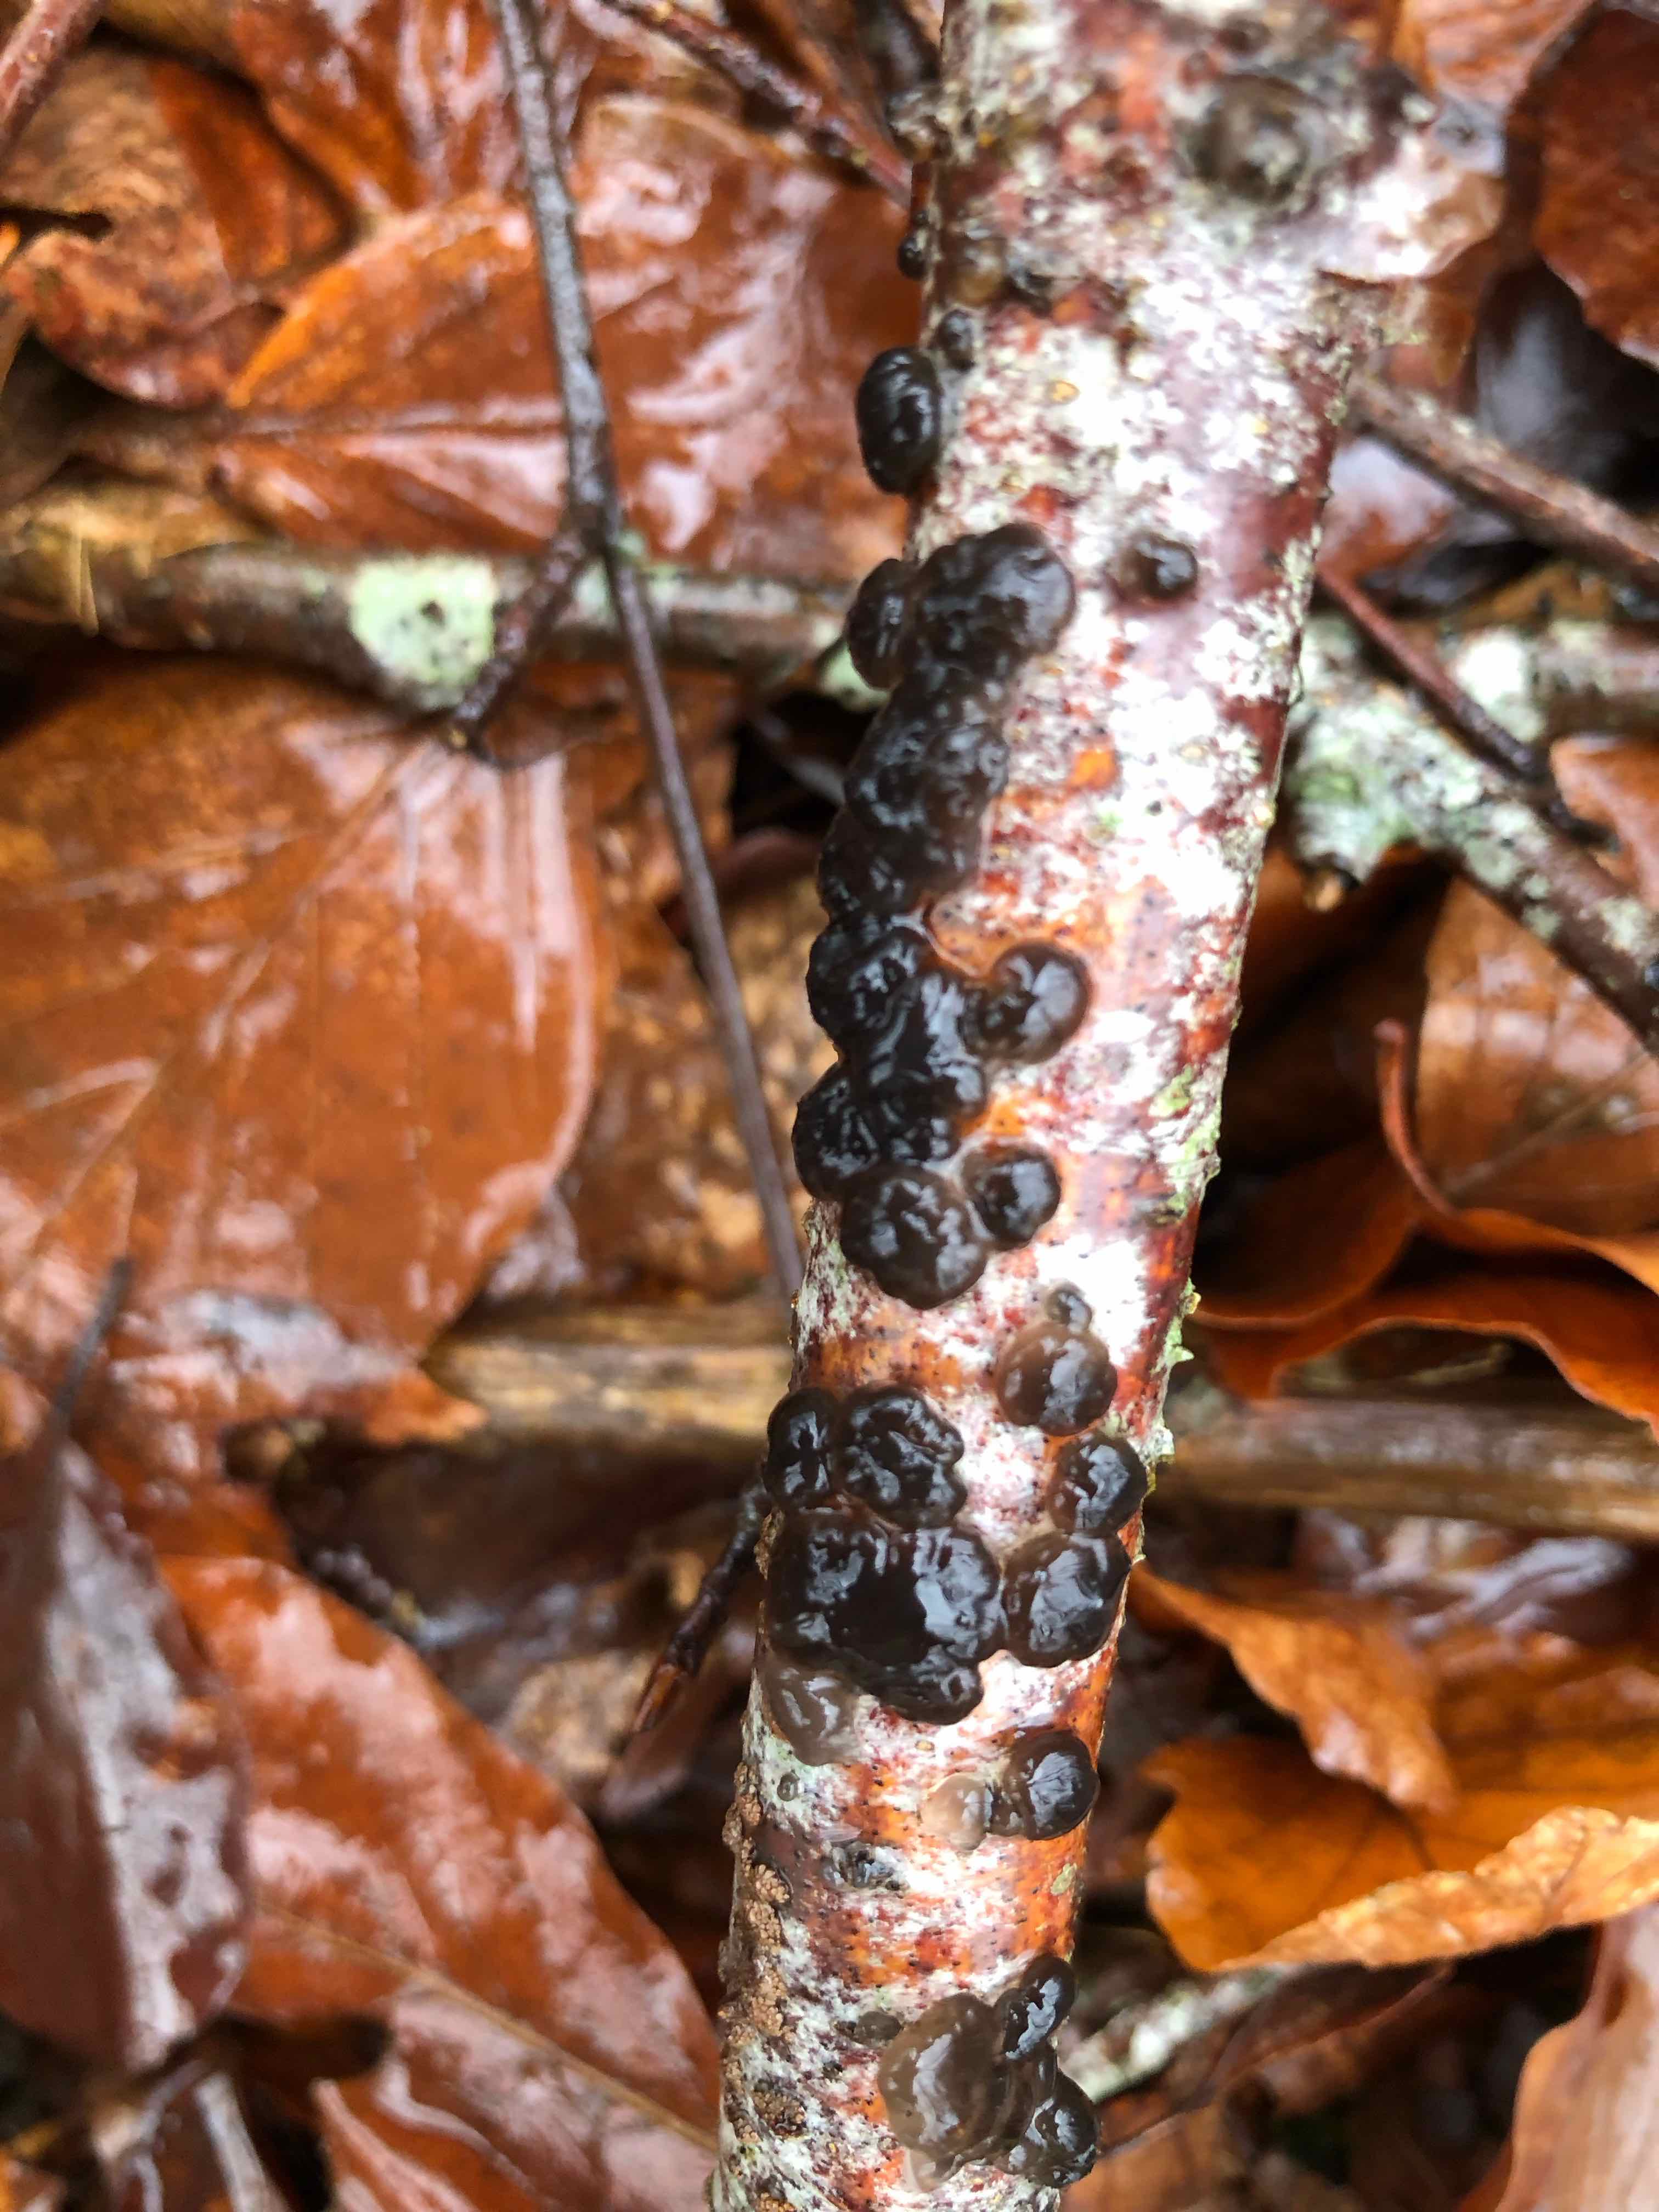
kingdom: Fungi
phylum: Basidiomycota
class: Agaricomycetes
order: Auriculariales
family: Auriculariaceae
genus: Exidia
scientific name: Exidia nigricans
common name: almindelig bævretop
